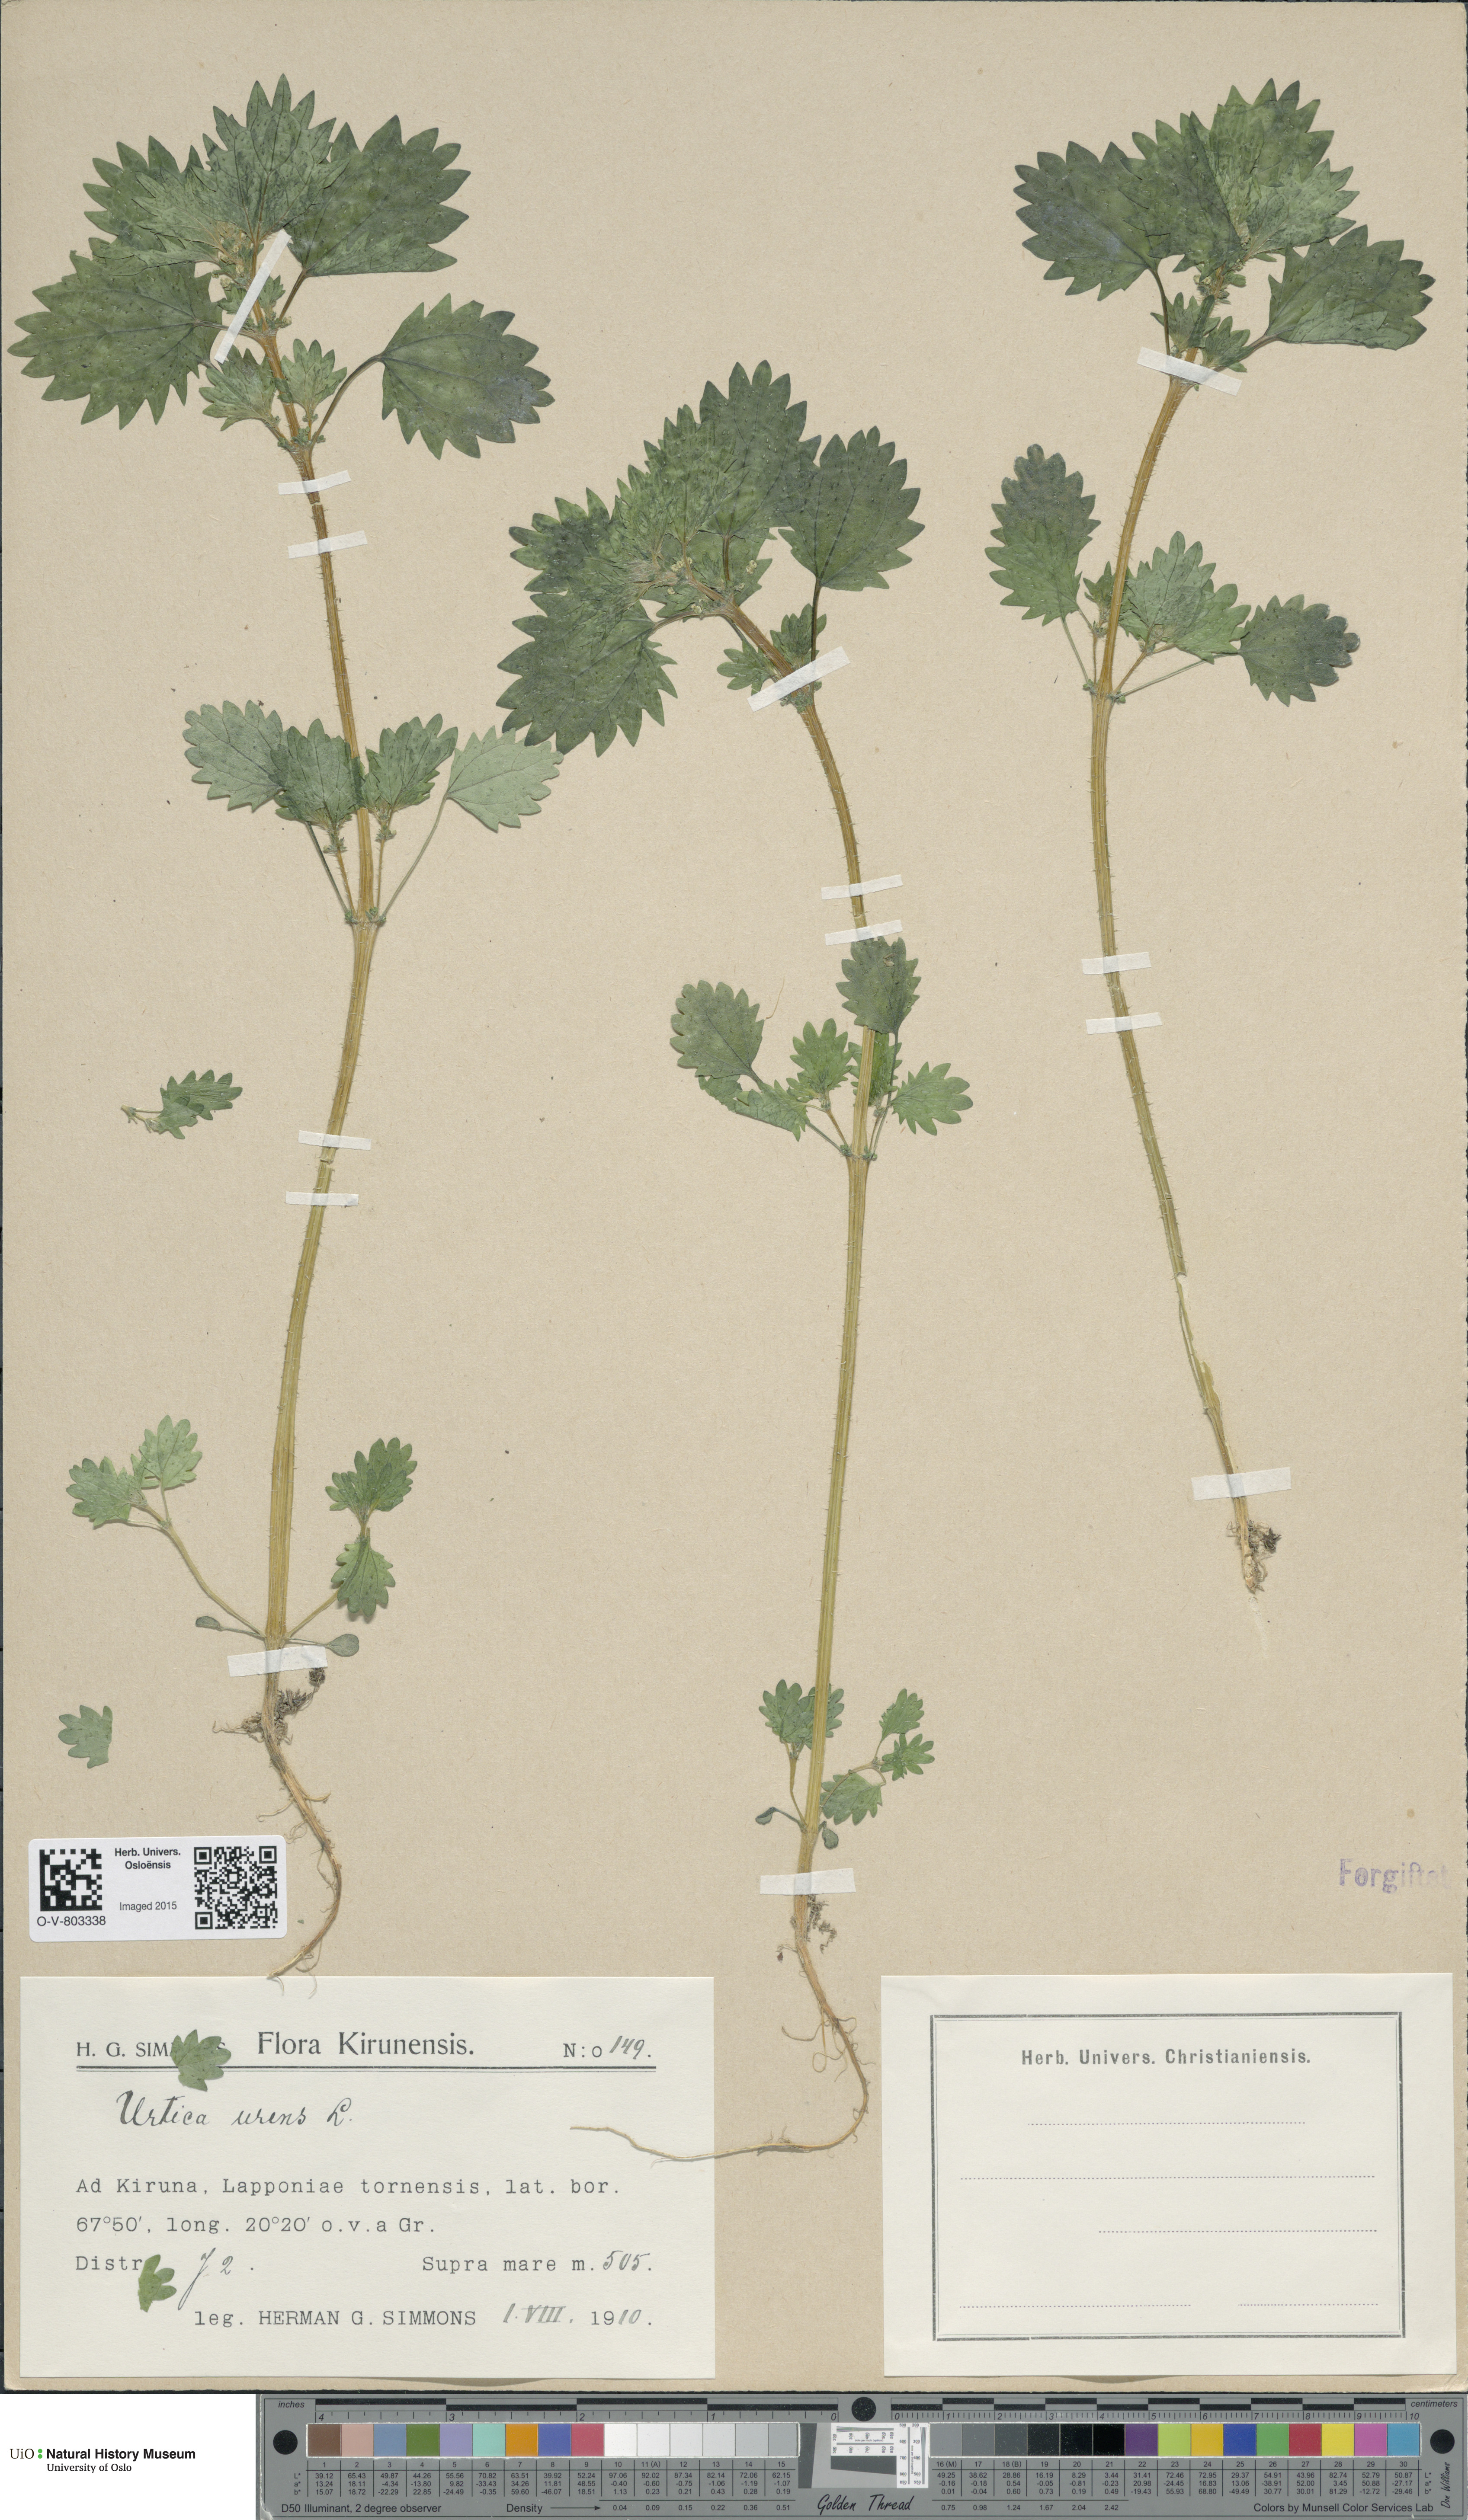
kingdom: Plantae
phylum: Tracheophyta
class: Magnoliopsida
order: Rosales
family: Urticaceae
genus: Urtica
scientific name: Urtica urens
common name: Dwarf nettle
